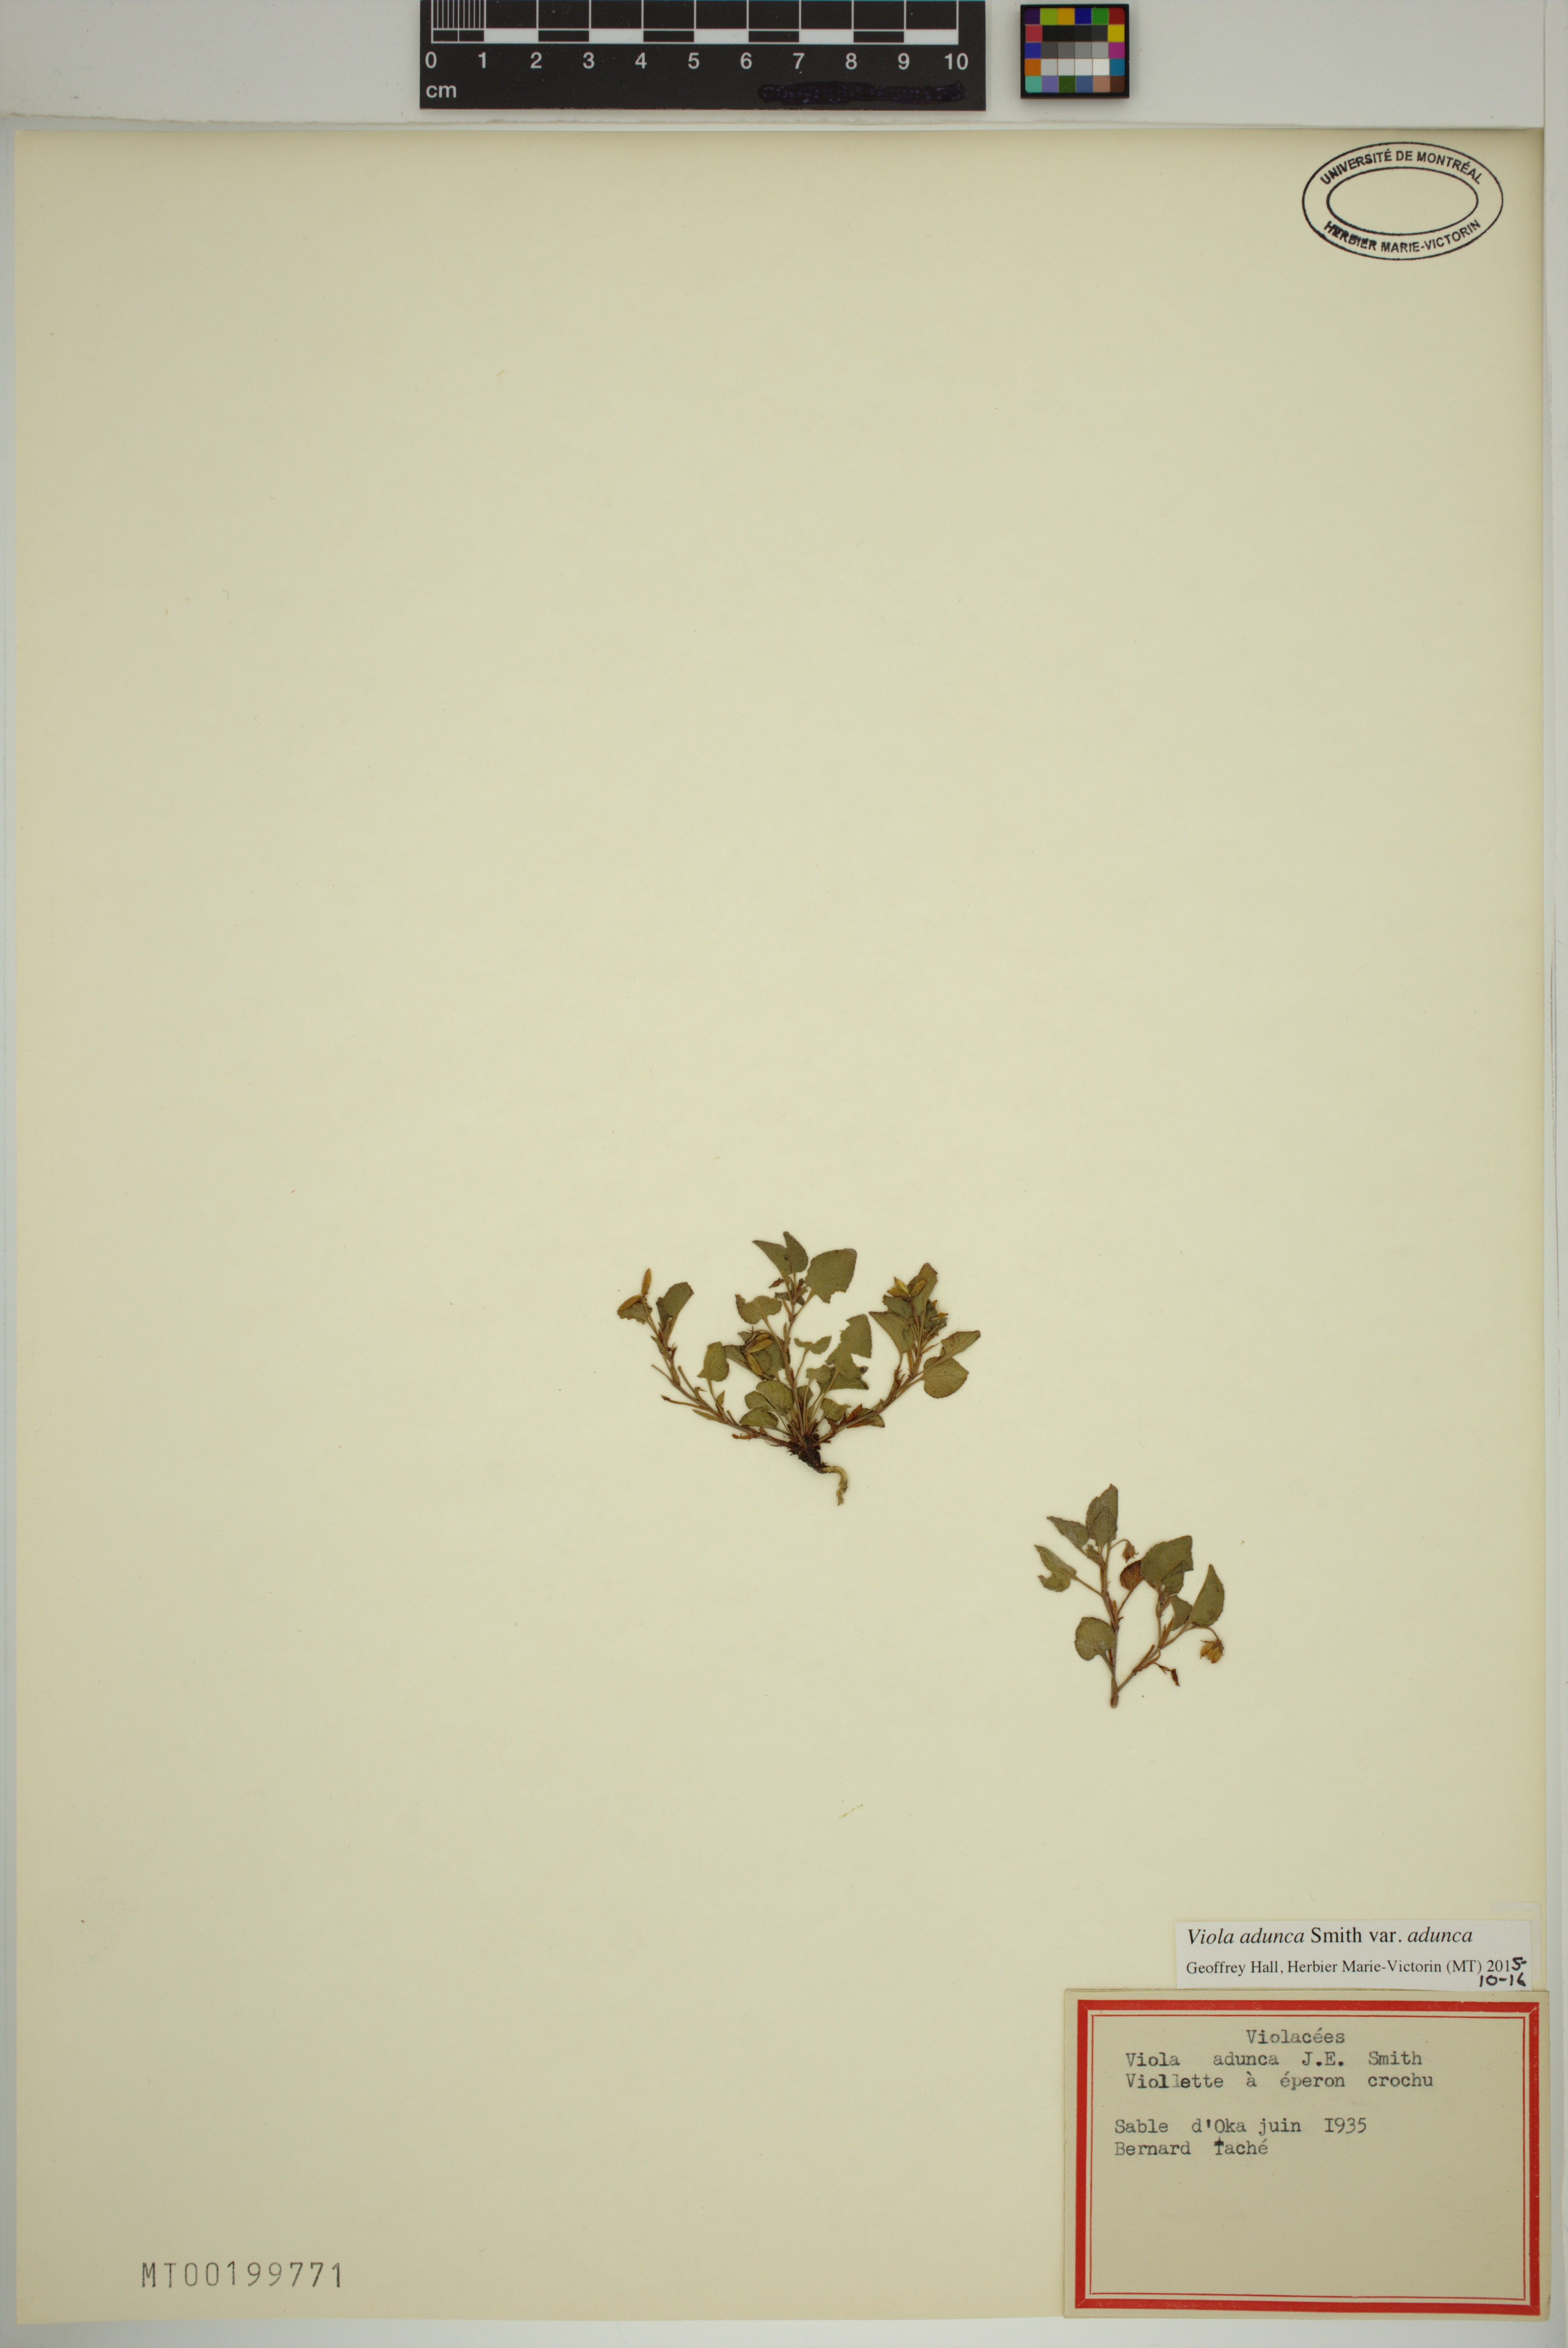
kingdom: Plantae
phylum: Tracheophyta
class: Magnoliopsida
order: Malpighiales
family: Violaceae
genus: Viola
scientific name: Viola adunca
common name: Sand violet
